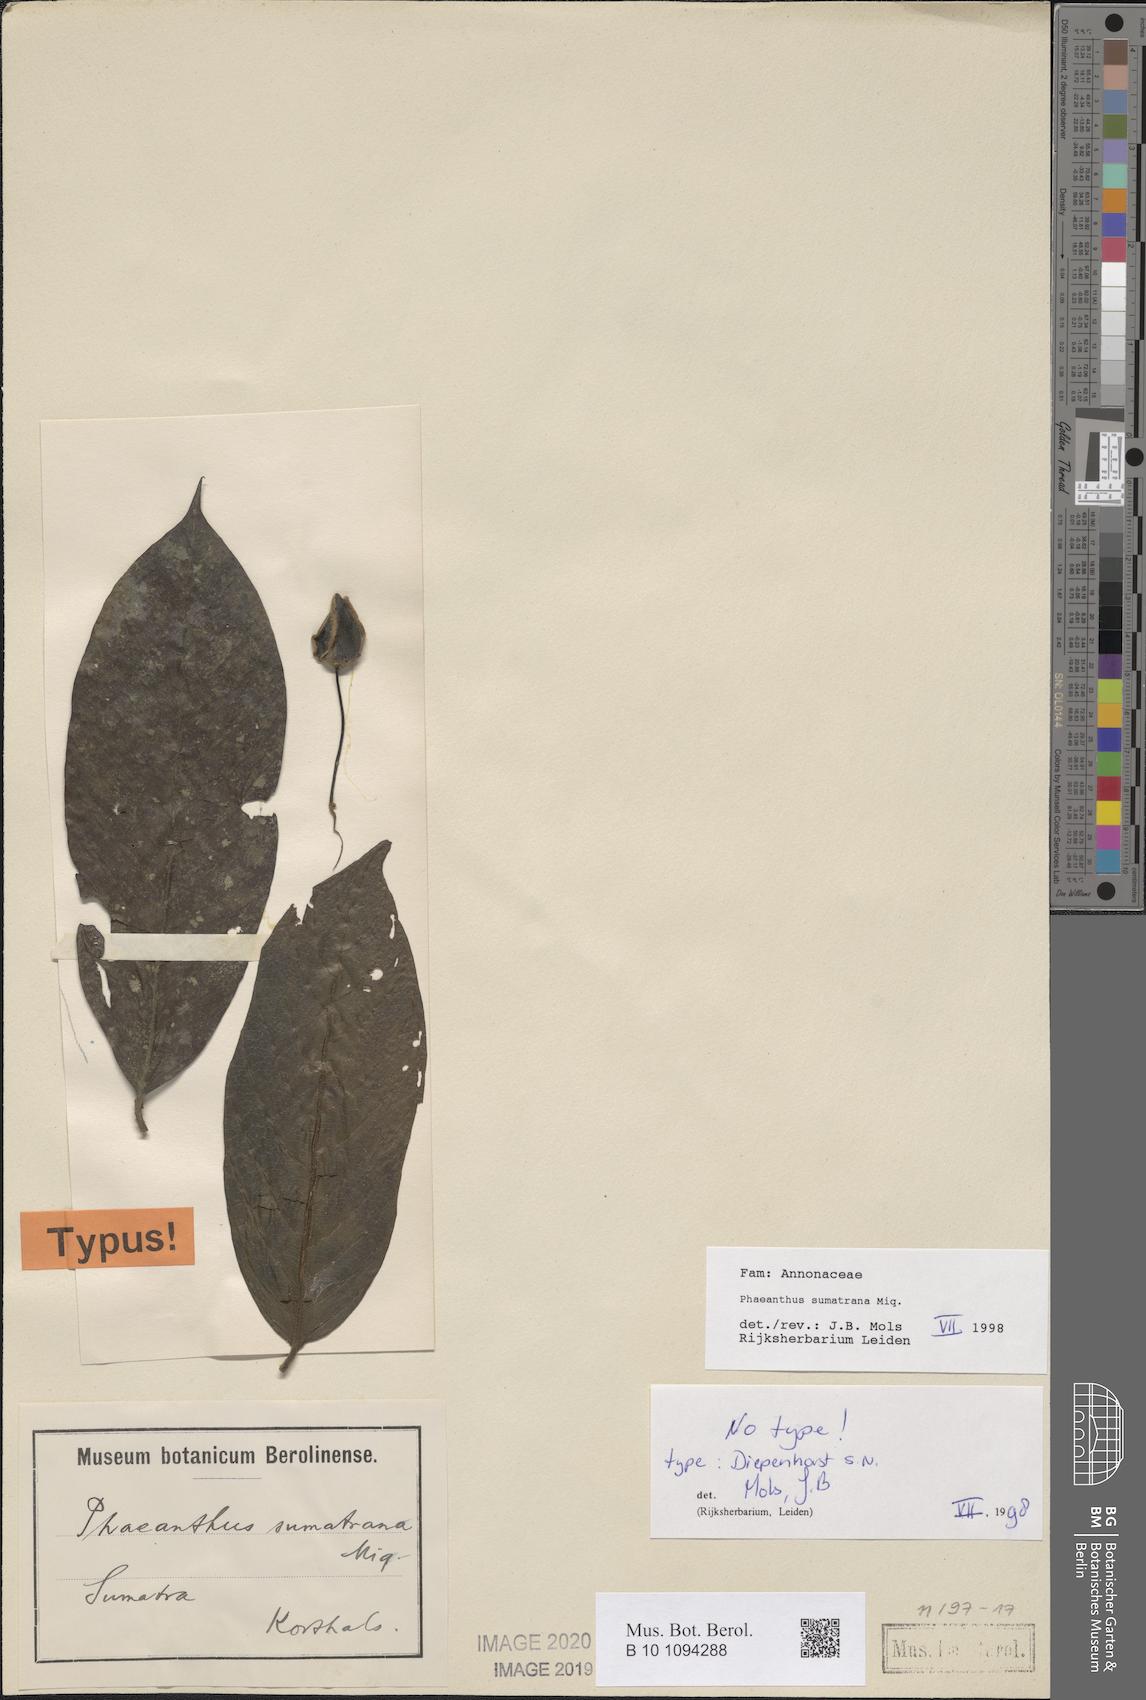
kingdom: Plantae
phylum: Tracheophyta
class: Magnoliopsida
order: Magnoliales
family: Annonaceae
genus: Phaeanthus
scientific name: Phaeanthus sumatrana
